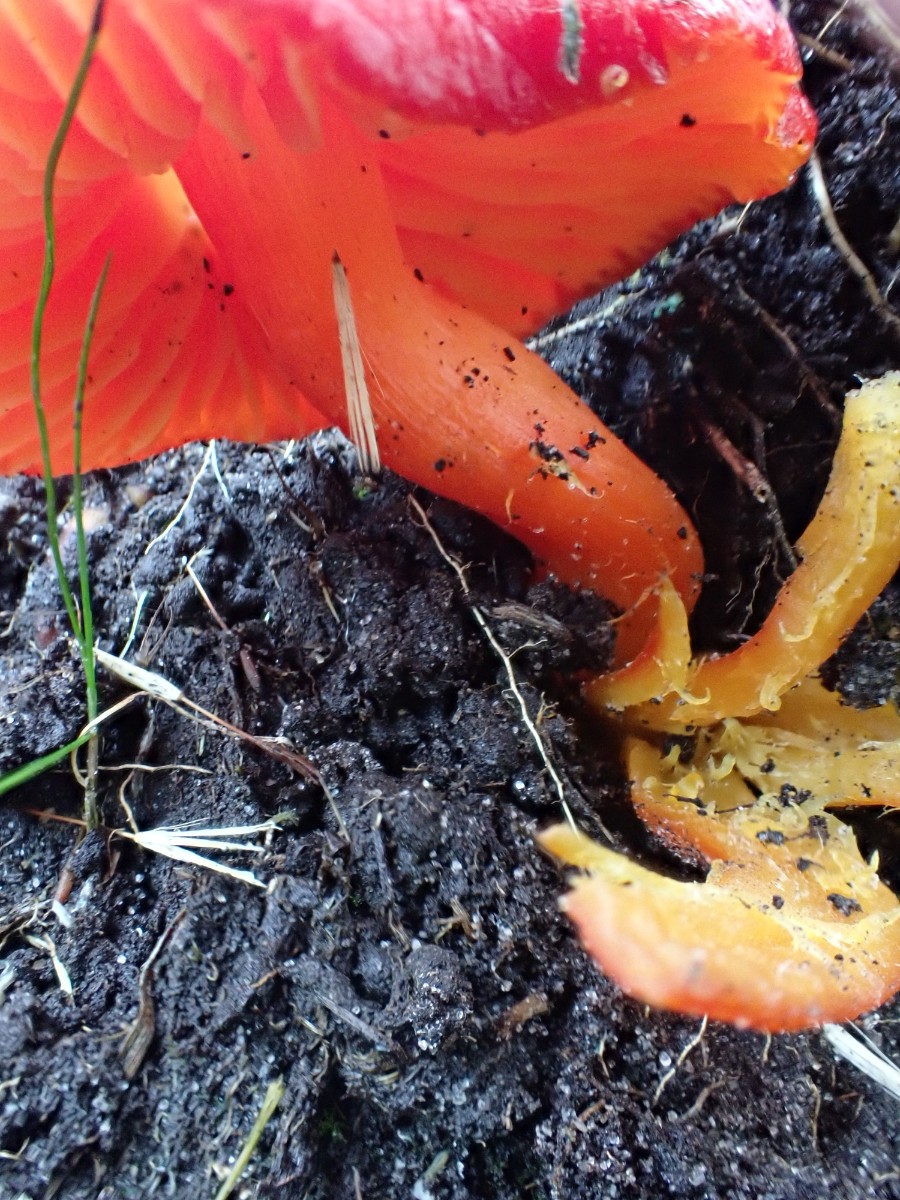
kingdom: Fungi
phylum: Basidiomycota
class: Agaricomycetes
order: Agaricales
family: Hygrophoraceae
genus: Hygrocybe
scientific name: Hygrocybe splendidissima
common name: knaldrød vokshat
